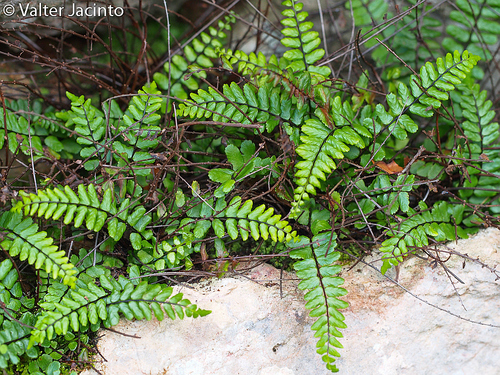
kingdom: Plantae
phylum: Tracheophyta
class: Polypodiopsida
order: Polypodiales
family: Aspleniaceae
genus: Asplenium
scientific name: Asplenium trichomanes
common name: Maidenhair spleenwort
